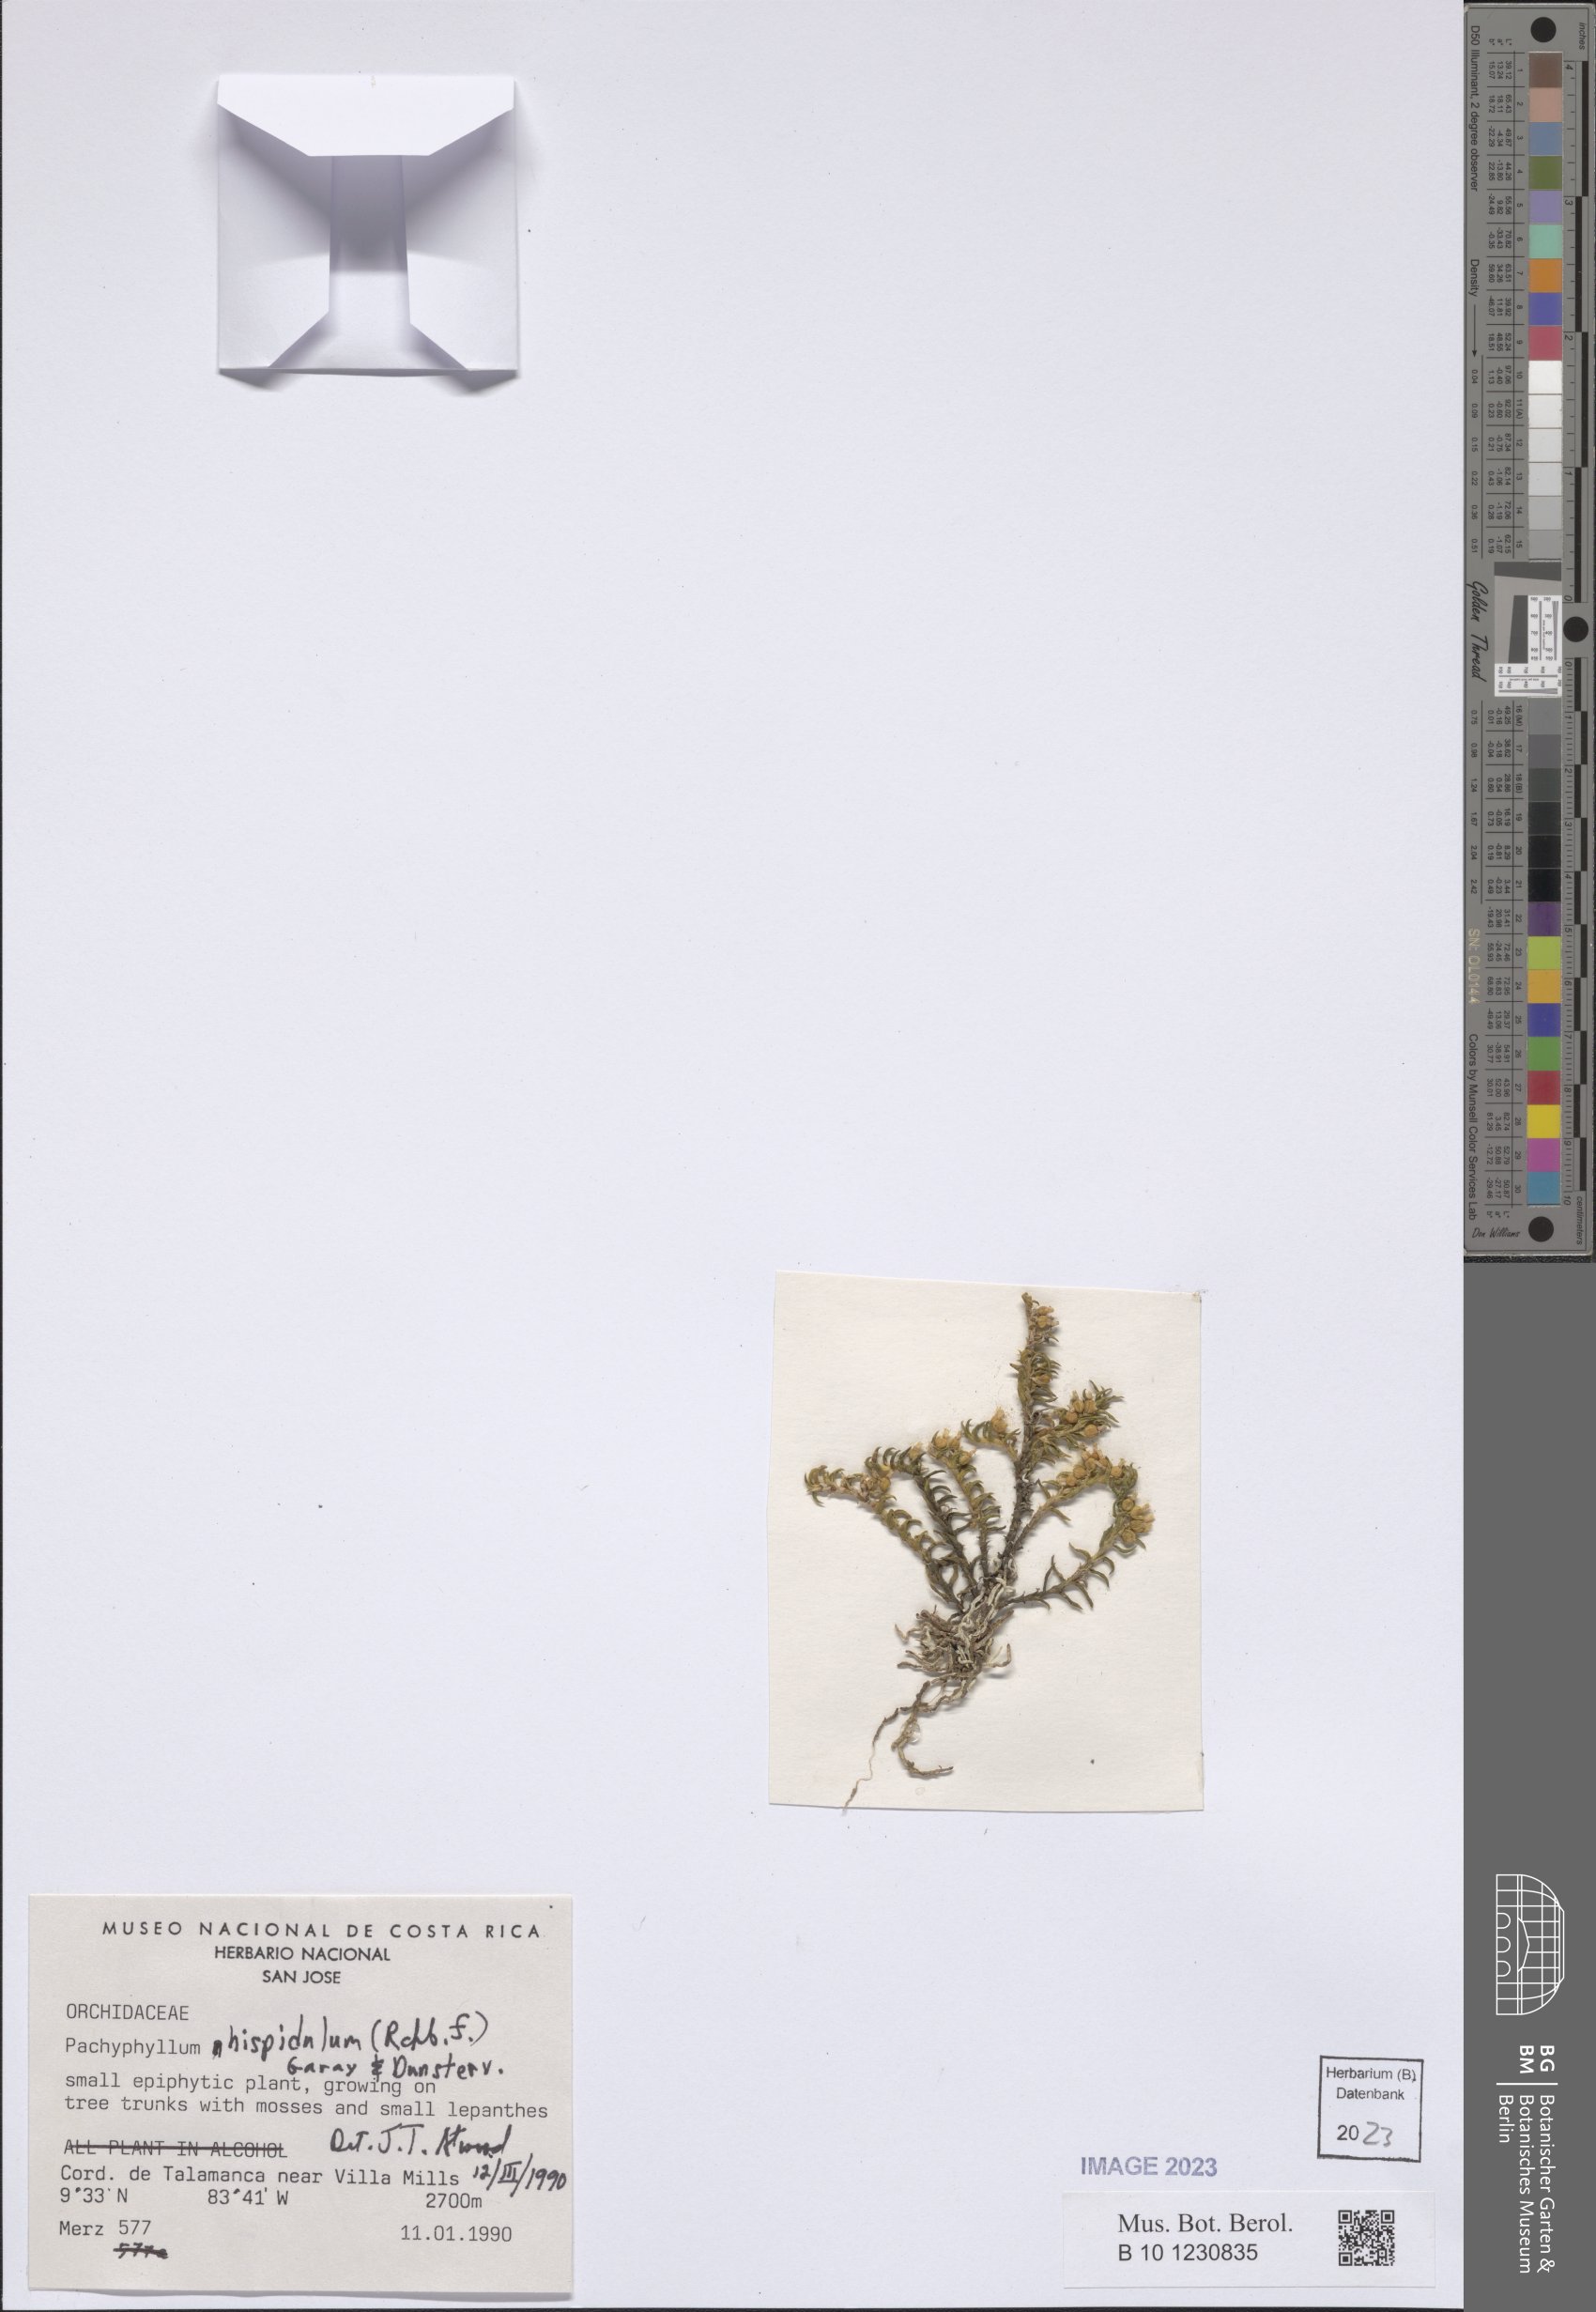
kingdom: Plantae
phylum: Tracheophyta
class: Liliopsida
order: Asparagales
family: Orchidaceae
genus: Fernandezia
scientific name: Fernandezia hispidula
